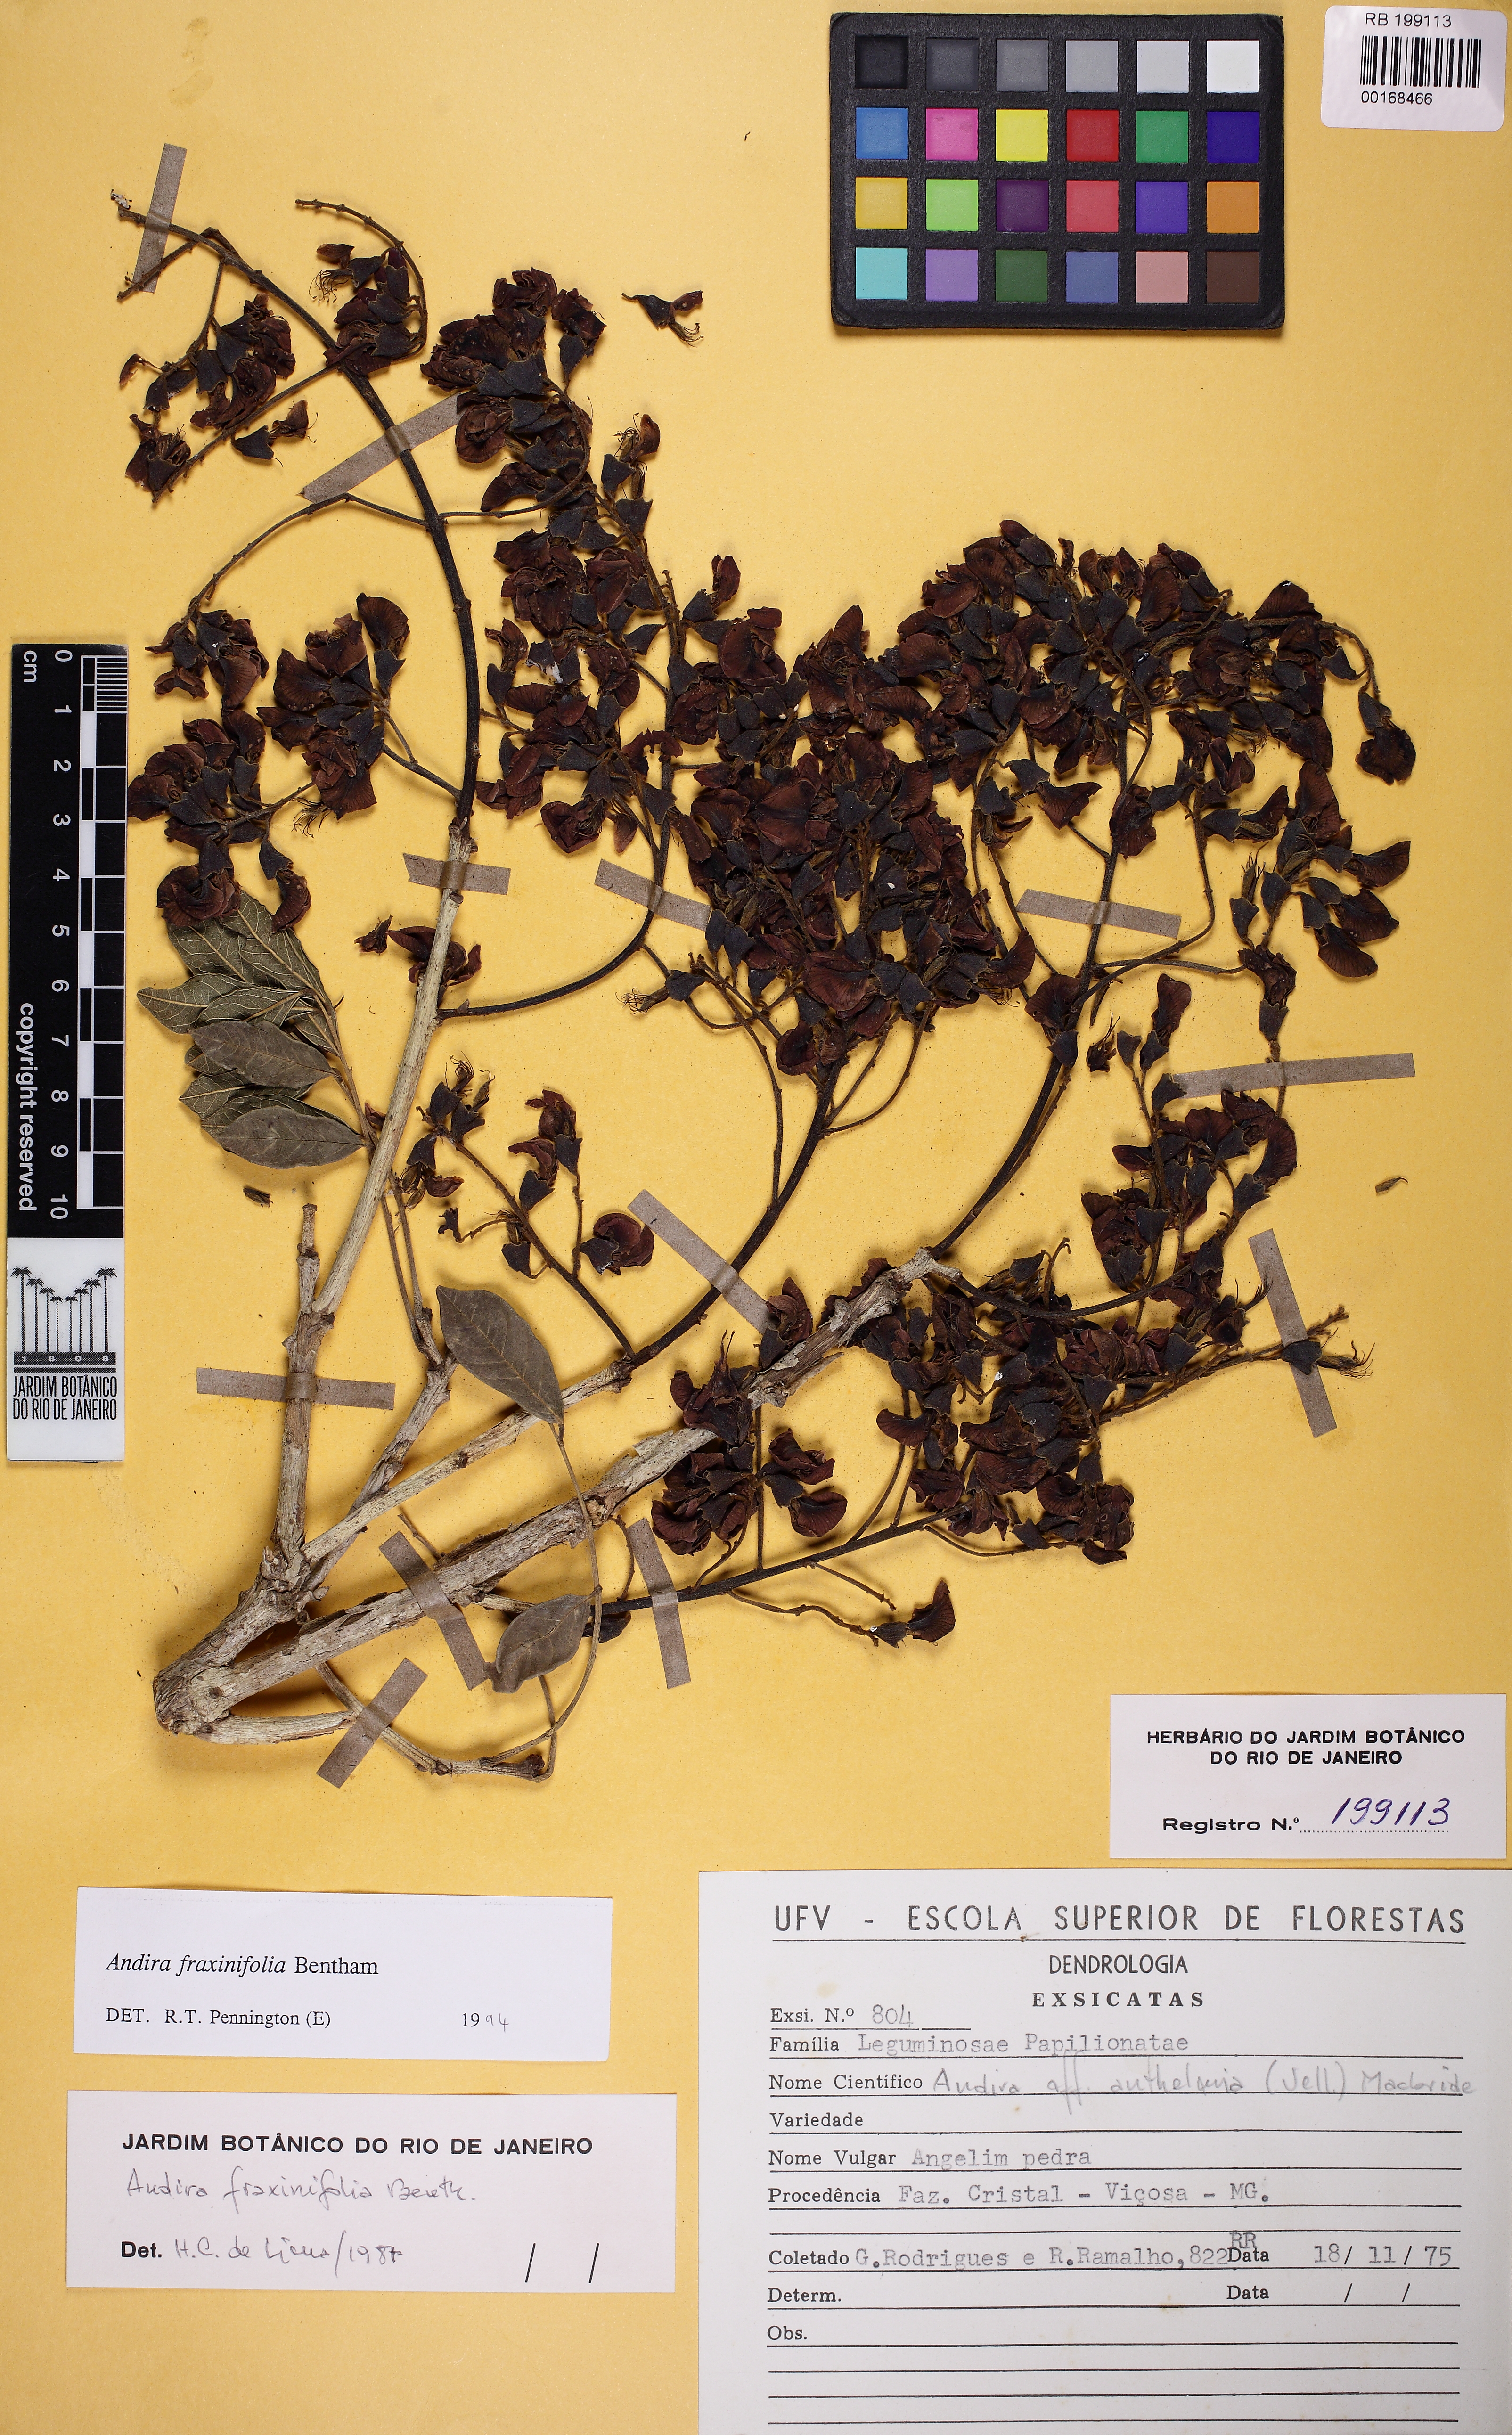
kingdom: Plantae
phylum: Tracheophyta
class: Magnoliopsida
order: Fabales
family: Fabaceae
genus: Andira
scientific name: Andira fraxinifolia
